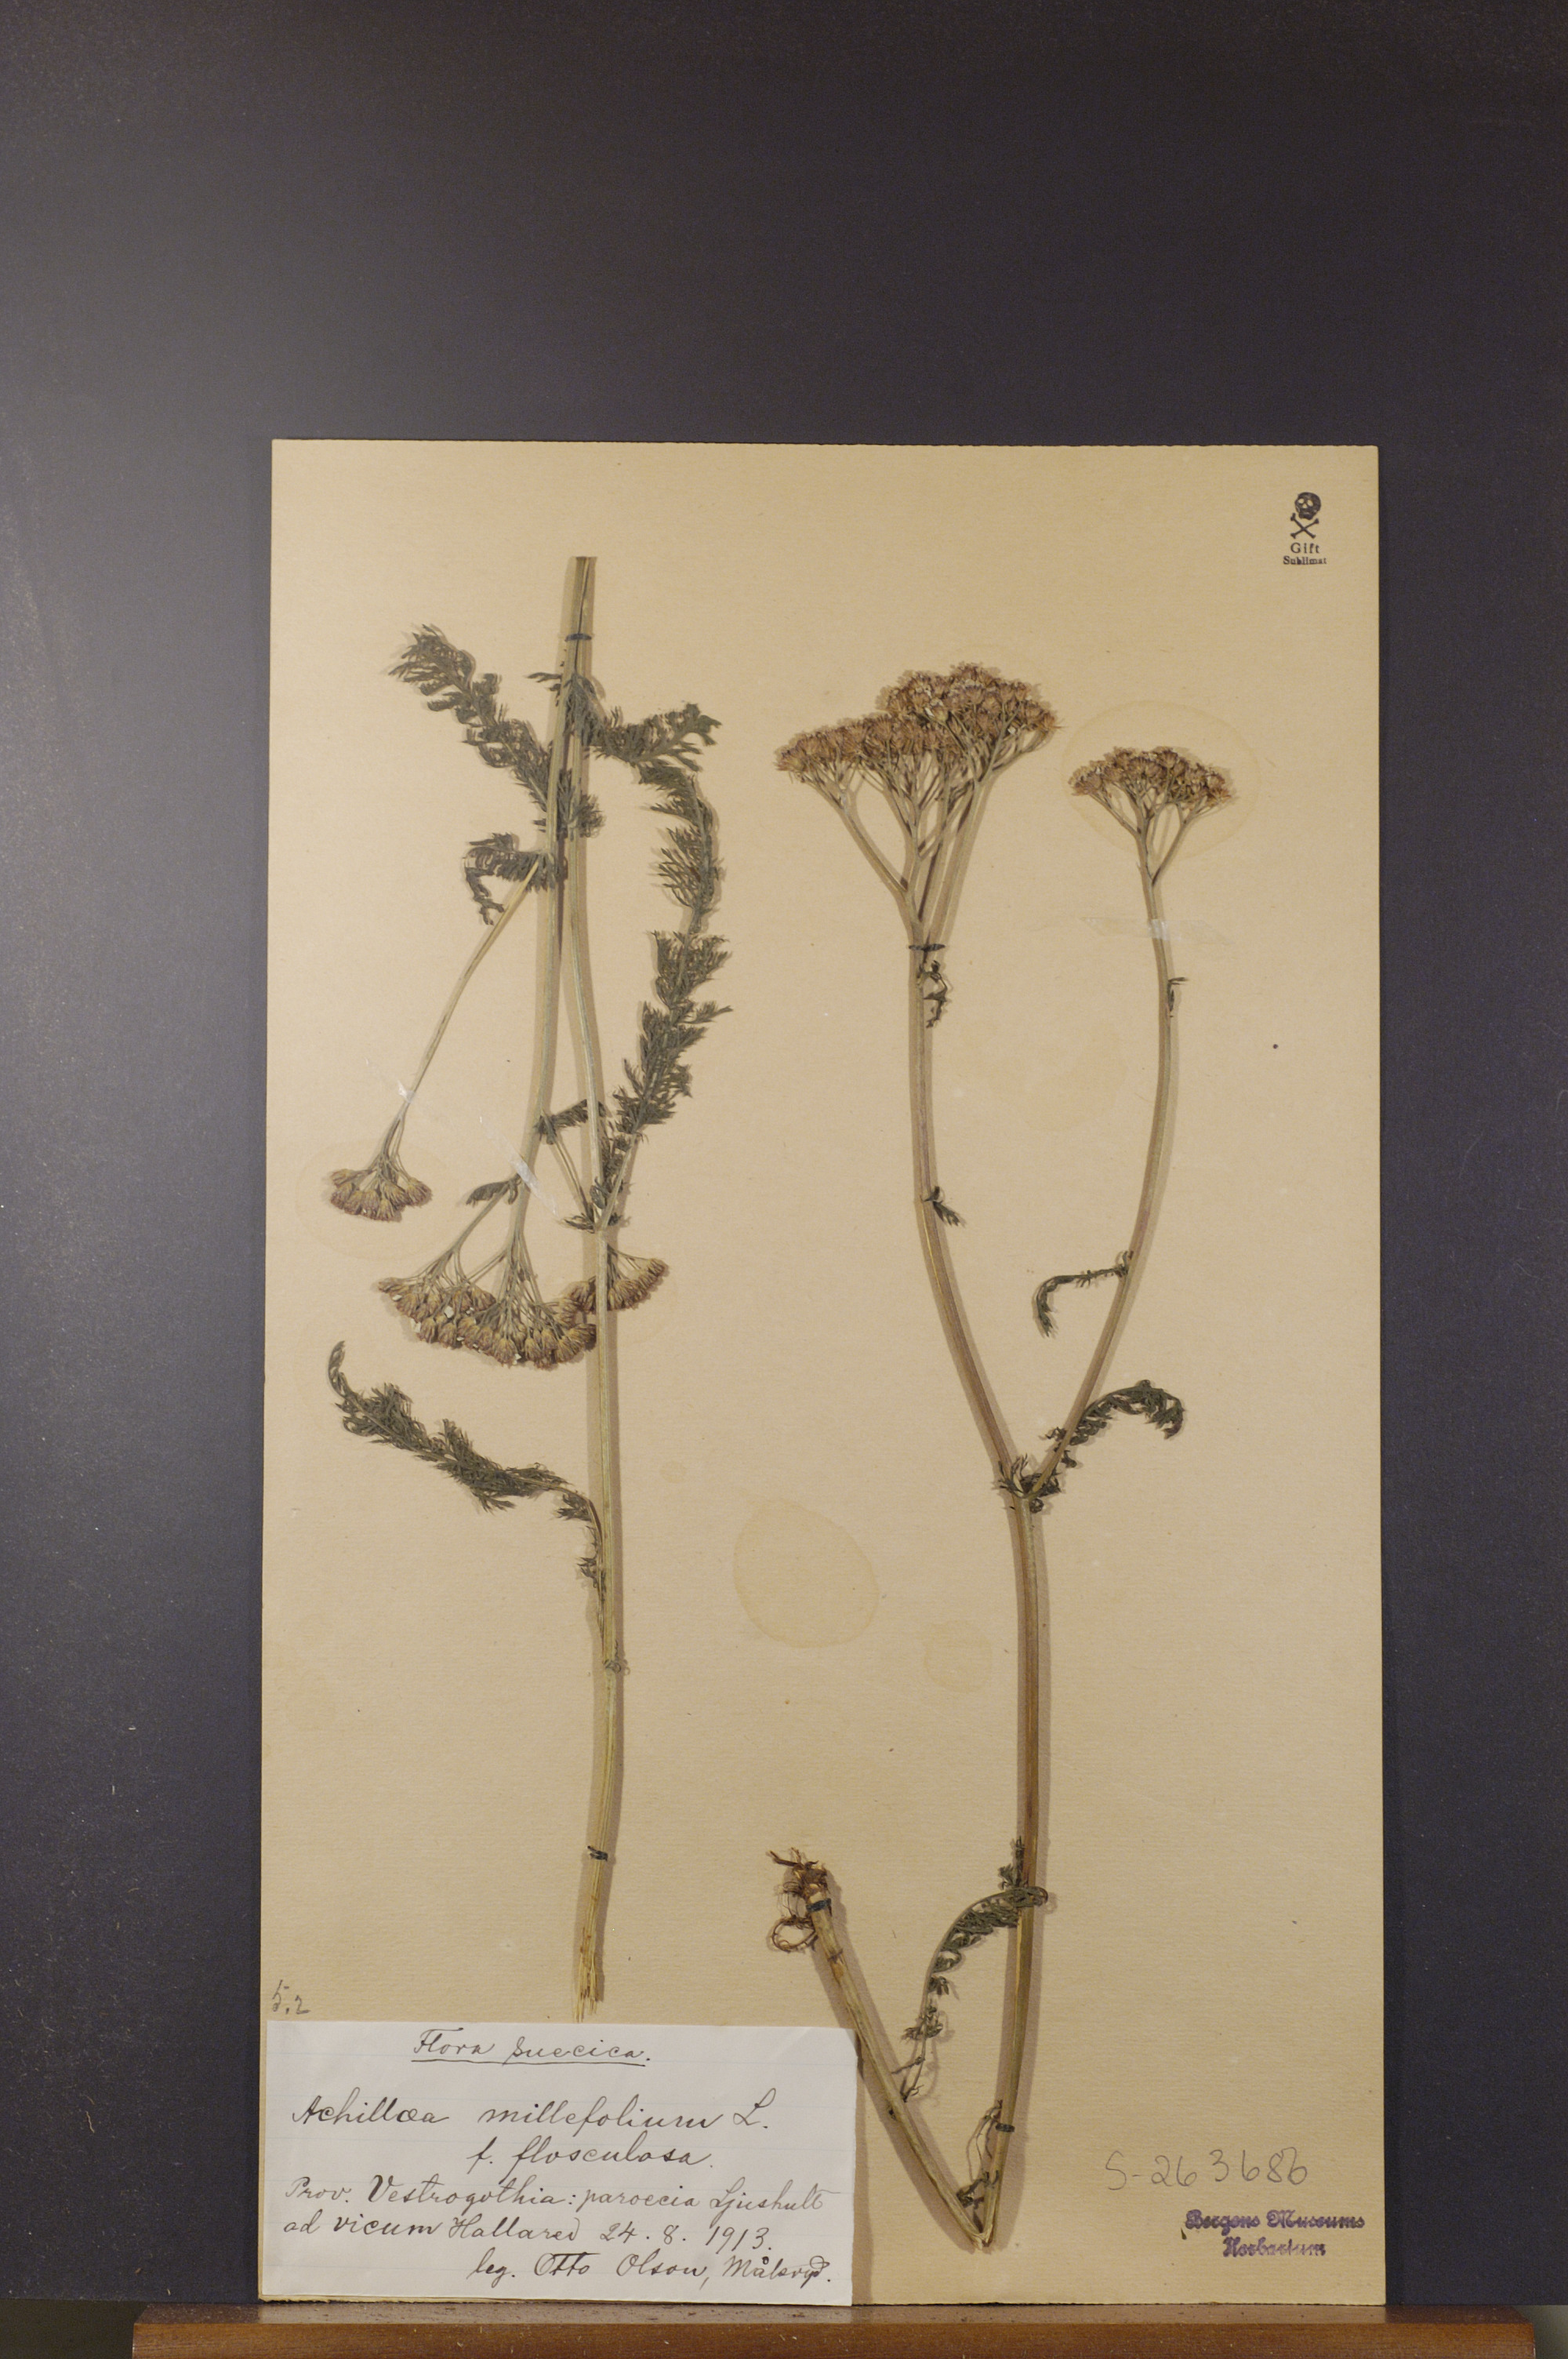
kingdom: Plantae
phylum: Tracheophyta
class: Magnoliopsida
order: Asterales
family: Asteraceae
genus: Achillea
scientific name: Achillea millefolium
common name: Yarrow
